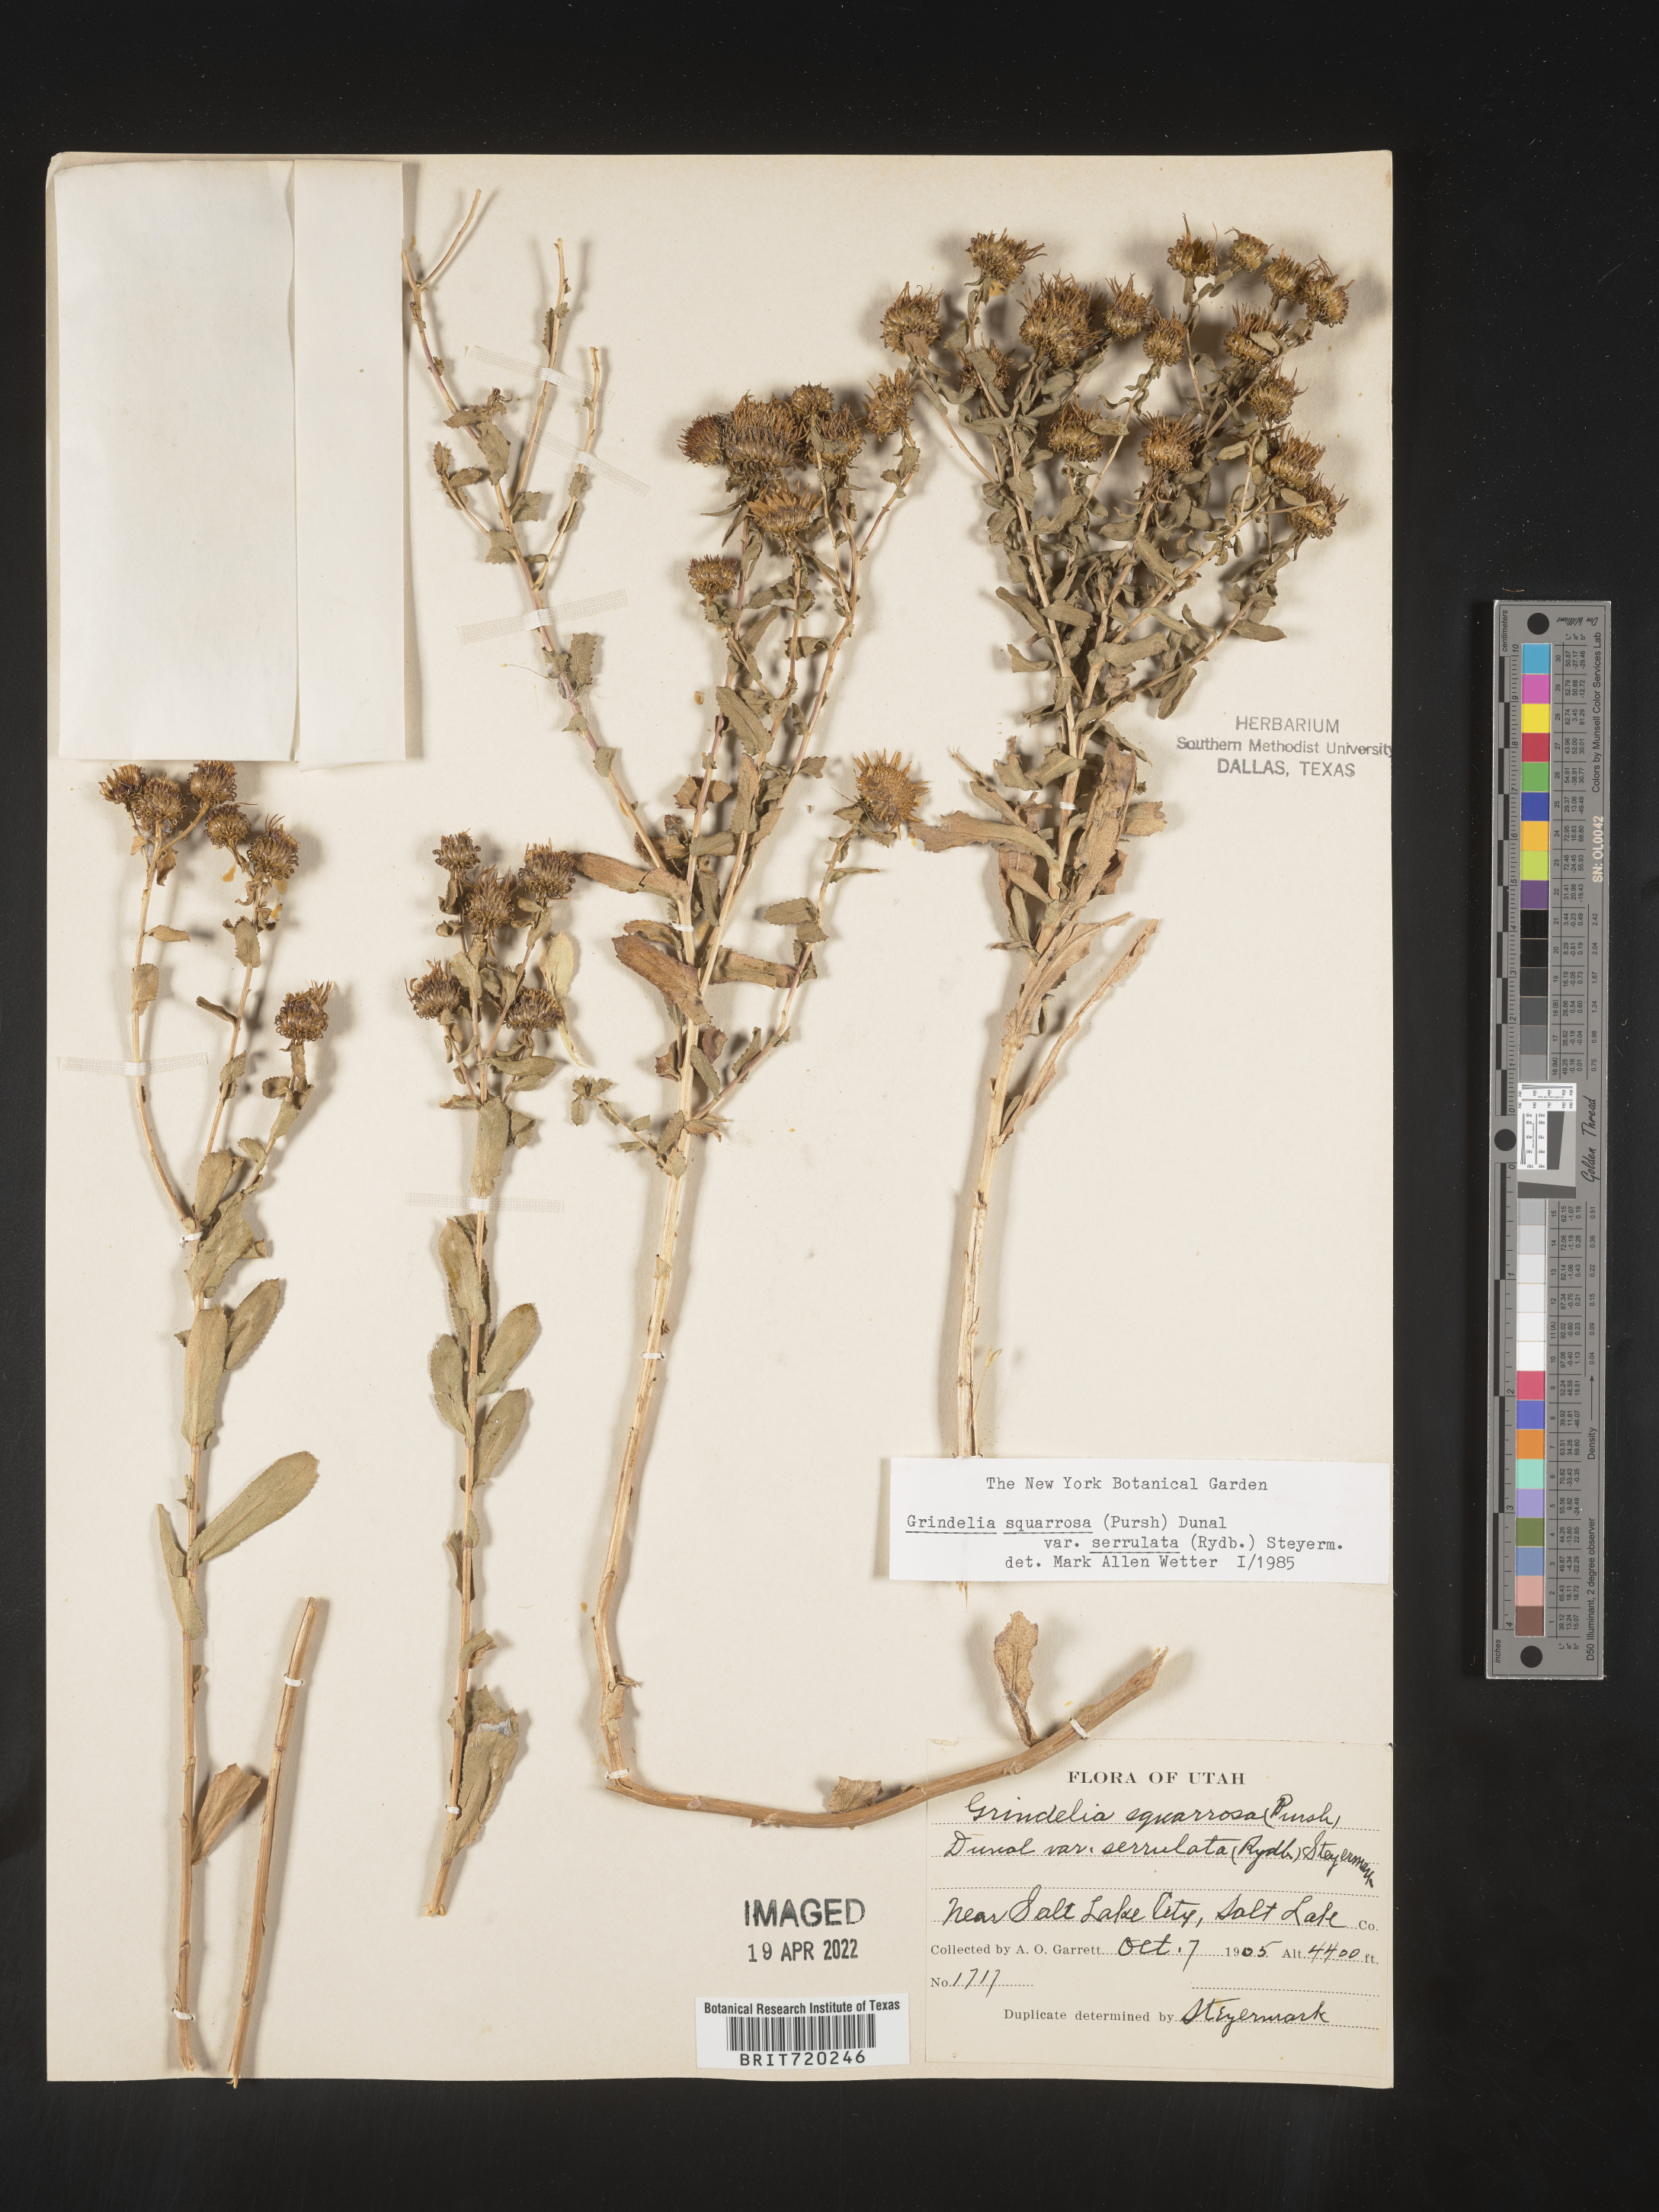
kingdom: Plantae
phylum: Tracheophyta
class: Magnoliopsida
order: Asterales
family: Asteraceae
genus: Grindelia
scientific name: Grindelia squarrosa
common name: Curly-cup gumweed
